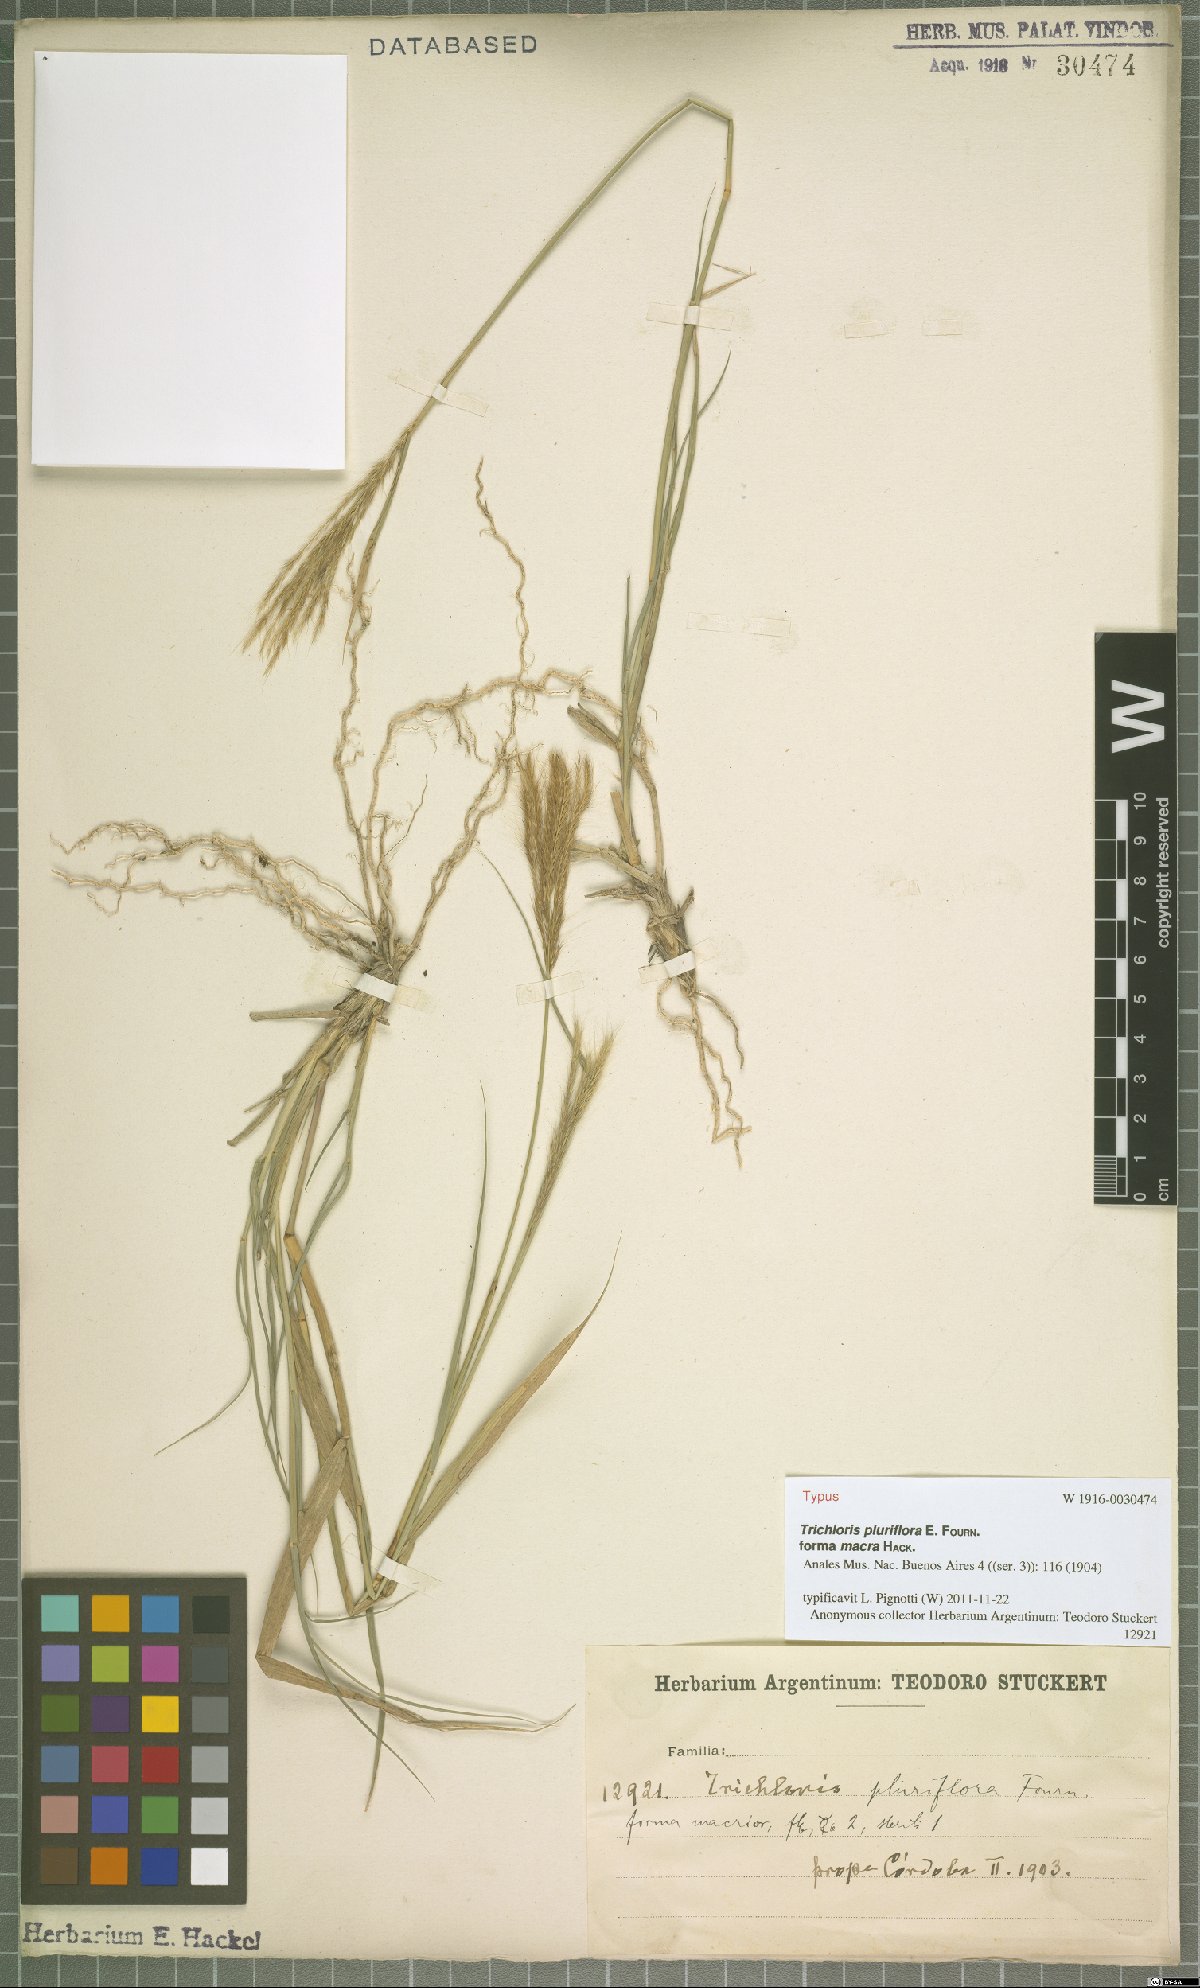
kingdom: Plantae
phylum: Tracheophyta
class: Liliopsida
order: Poales
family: Poaceae
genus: Leptochloa
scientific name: Leptochloa pluriflora
